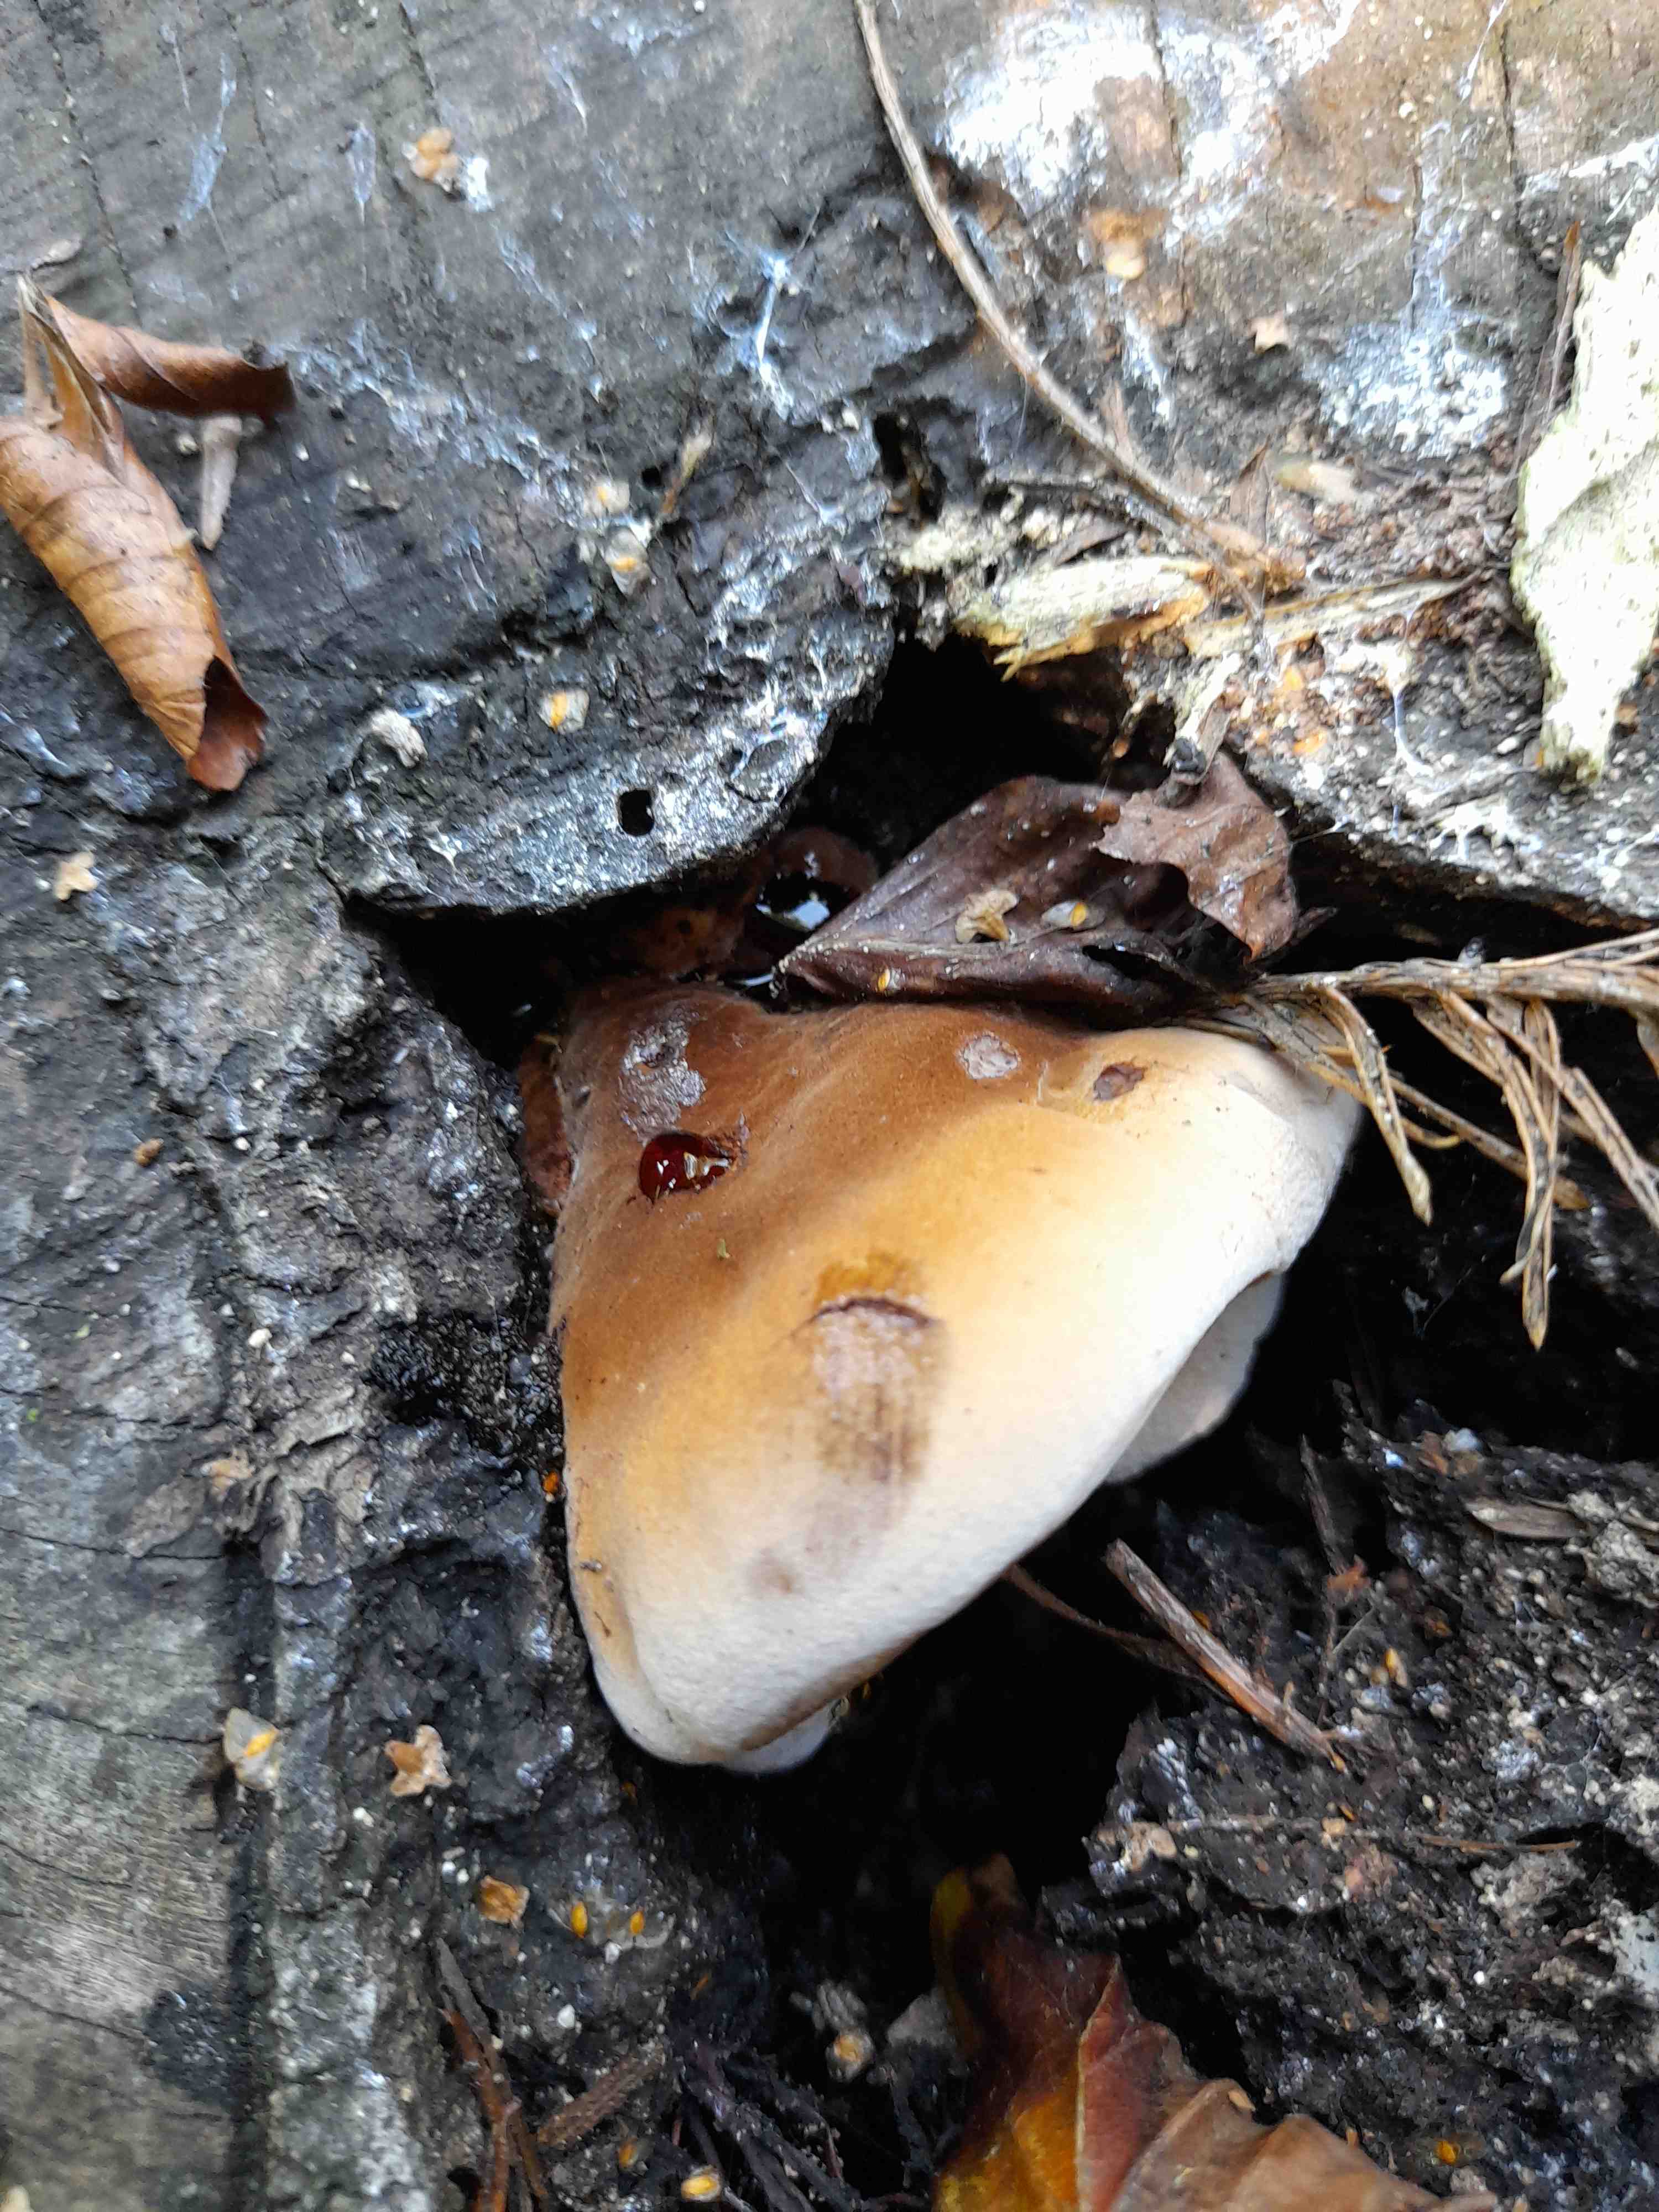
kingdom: Fungi
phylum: Basidiomycota
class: Agaricomycetes
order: Polyporales
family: Ischnodermataceae
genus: Ischnoderma
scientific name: Ischnoderma resinosum
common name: løv-tjæreporesvamp
